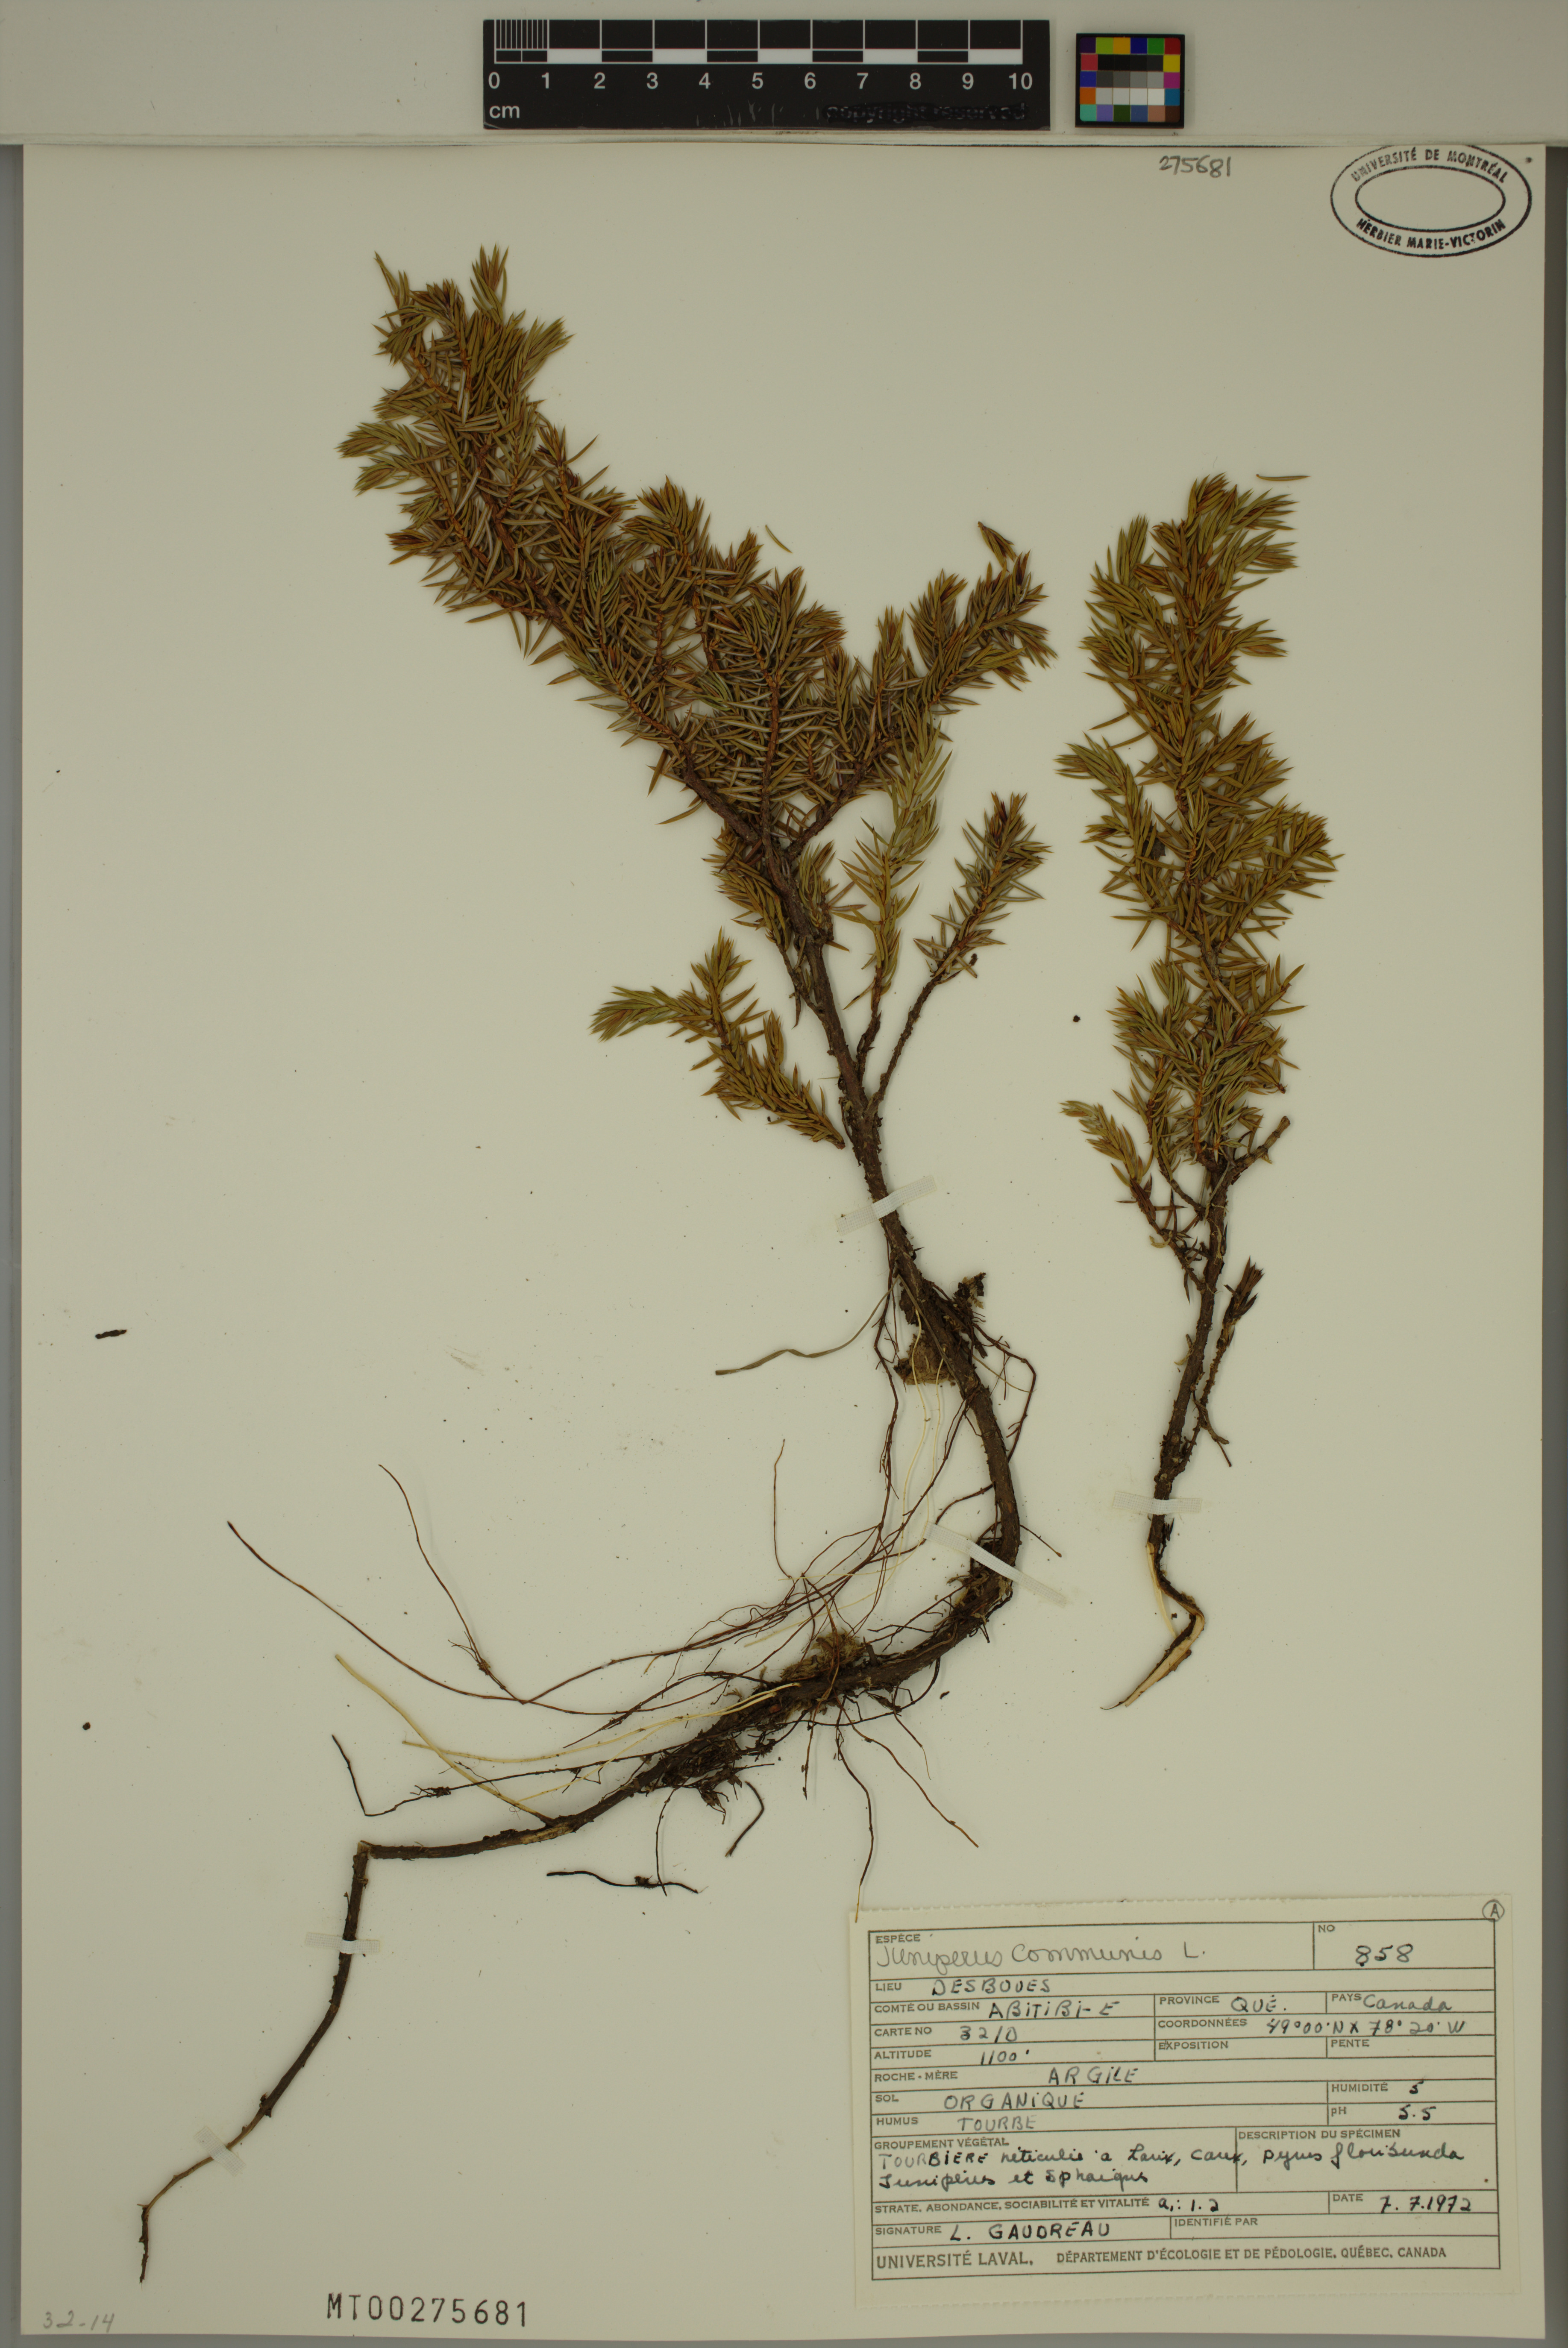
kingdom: Plantae
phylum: Tracheophyta
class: Pinopsida
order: Pinales
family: Cupressaceae
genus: Juniperus
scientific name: Juniperus communis
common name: Common juniper
